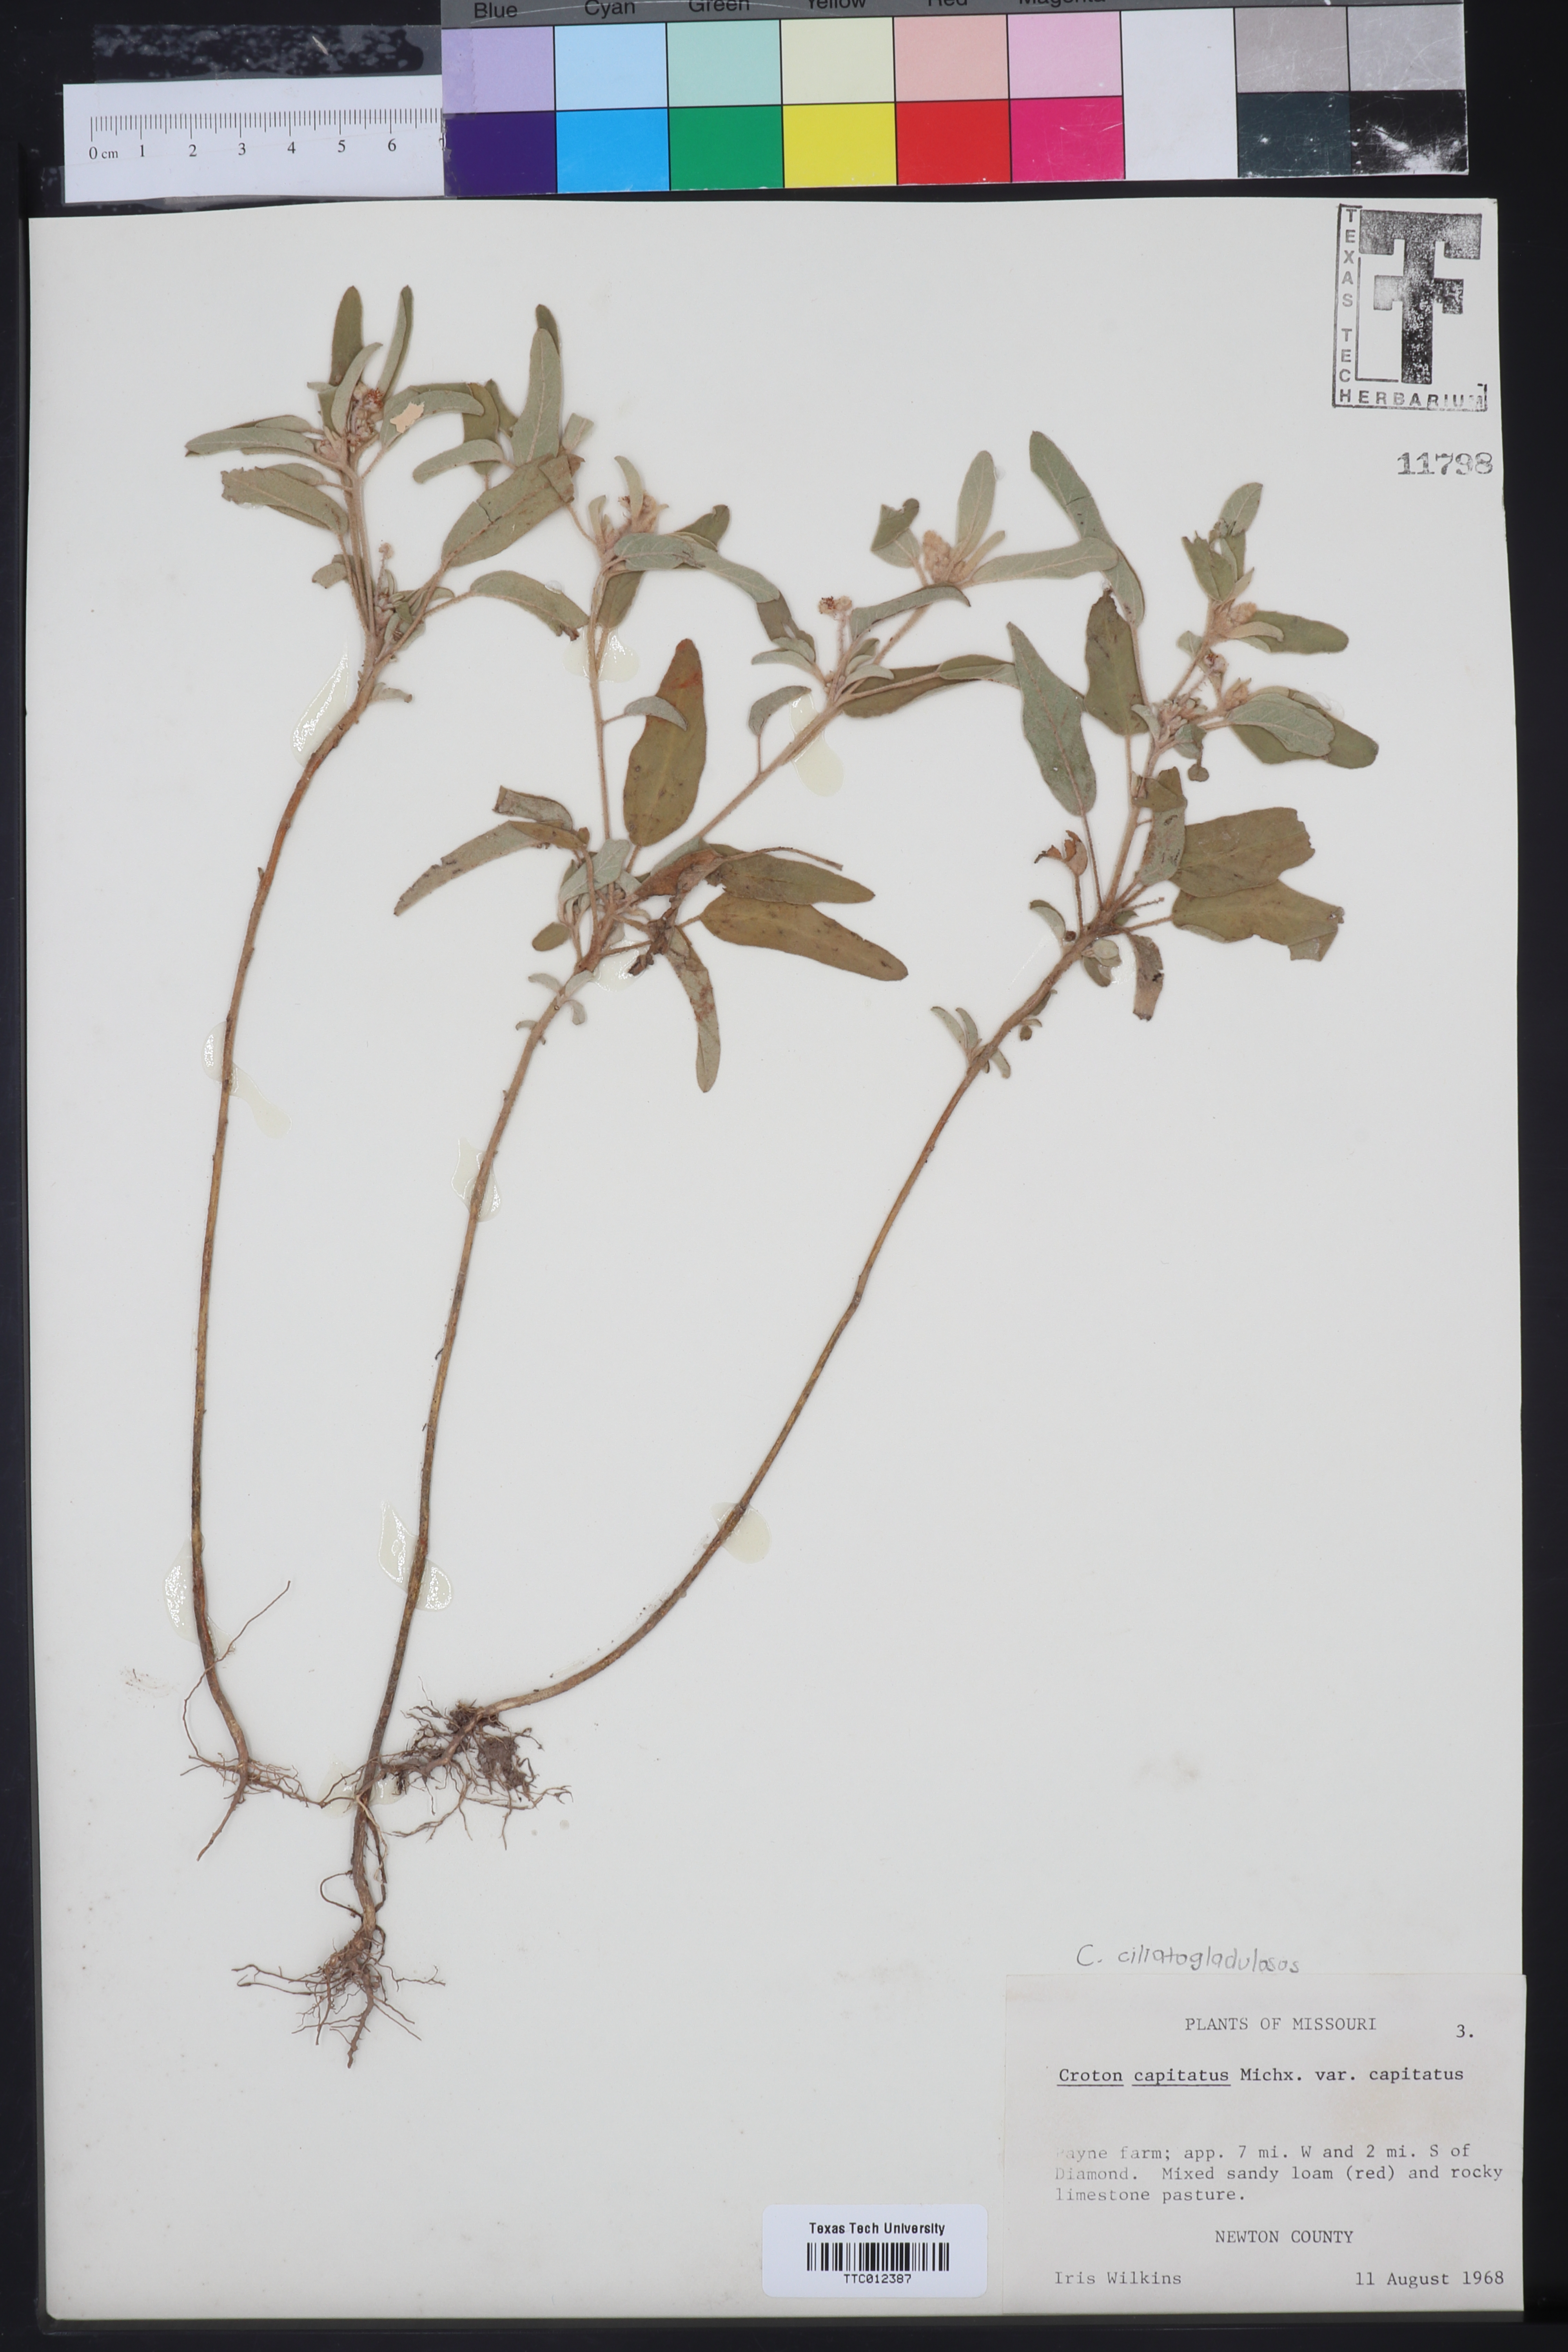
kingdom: Plantae
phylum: Tracheophyta
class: Magnoliopsida
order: Malpighiales
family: Euphorbiaceae
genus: Croton
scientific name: Croton capitatus
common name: Woolly croton
